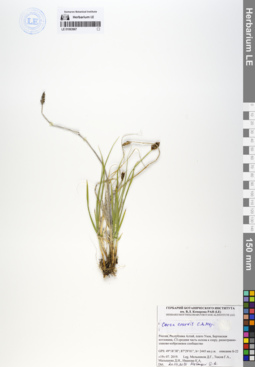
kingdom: Plantae
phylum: Tracheophyta
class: Liliopsida
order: Poales
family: Cyperaceae
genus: Carex
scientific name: Carex enervis
